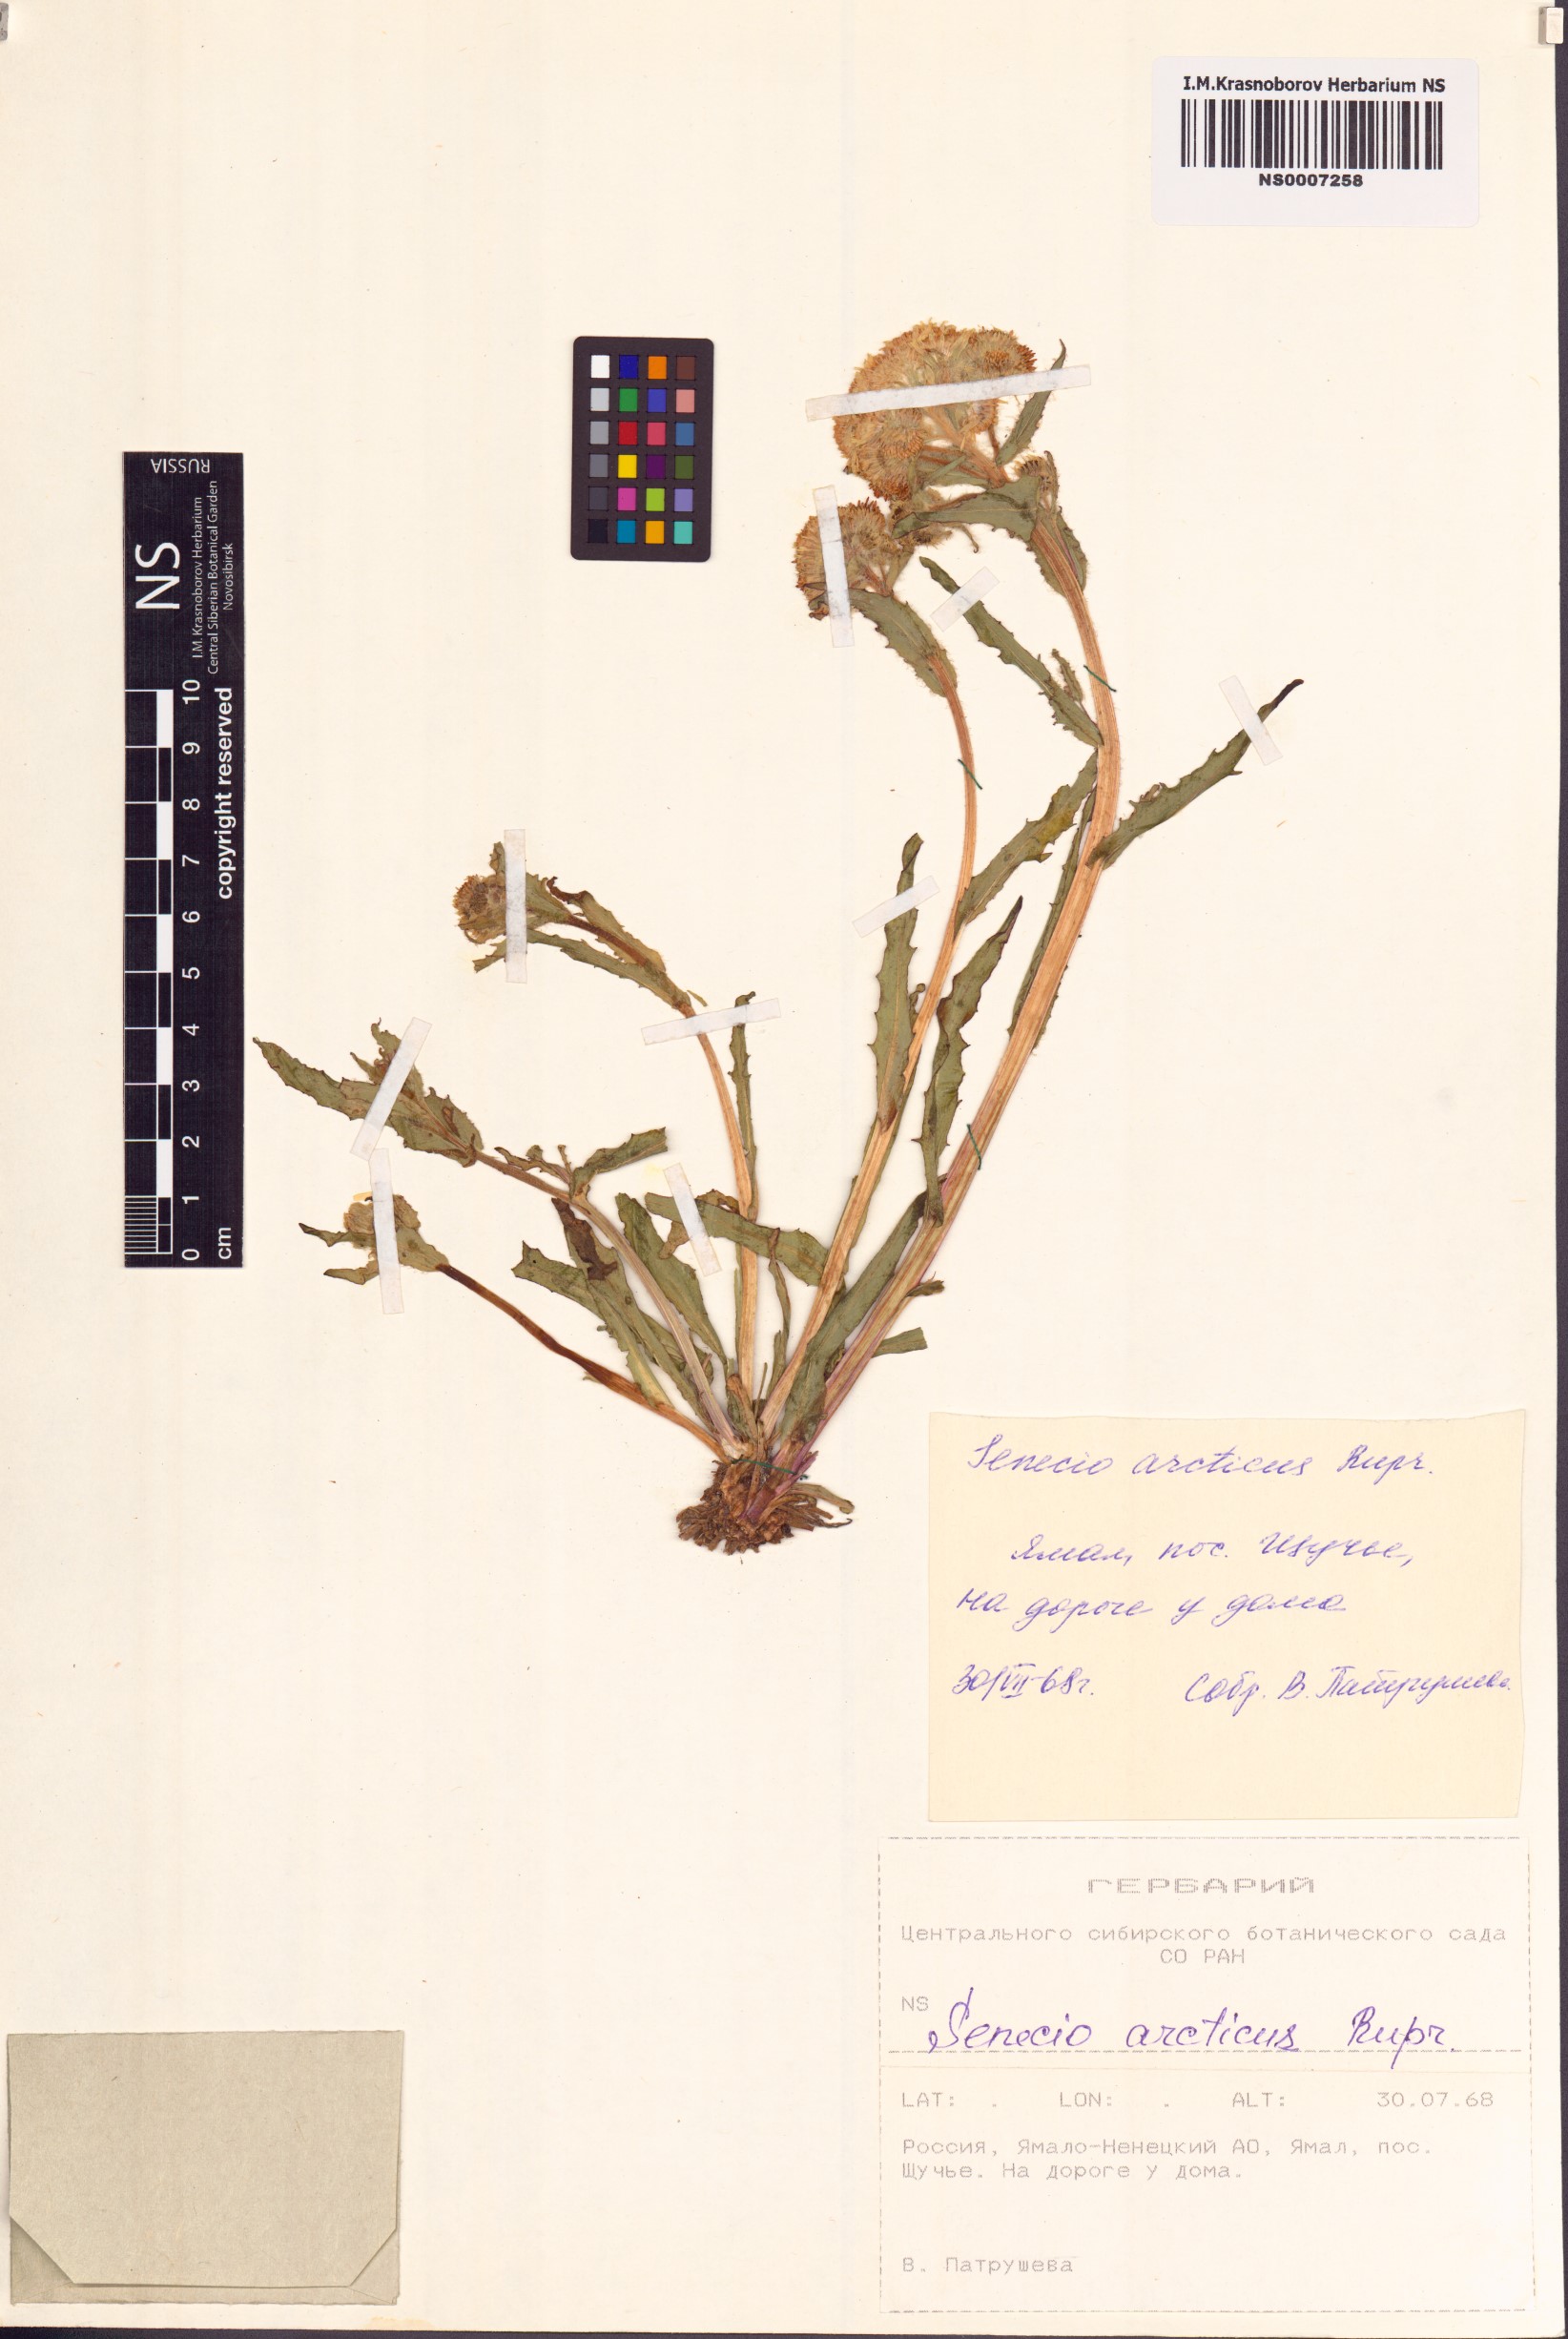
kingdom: Plantae
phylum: Tracheophyta
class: Magnoliopsida
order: Asterales
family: Asteraceae
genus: Tephroseris
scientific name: Tephroseris palustris
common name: Marsh fleawort
